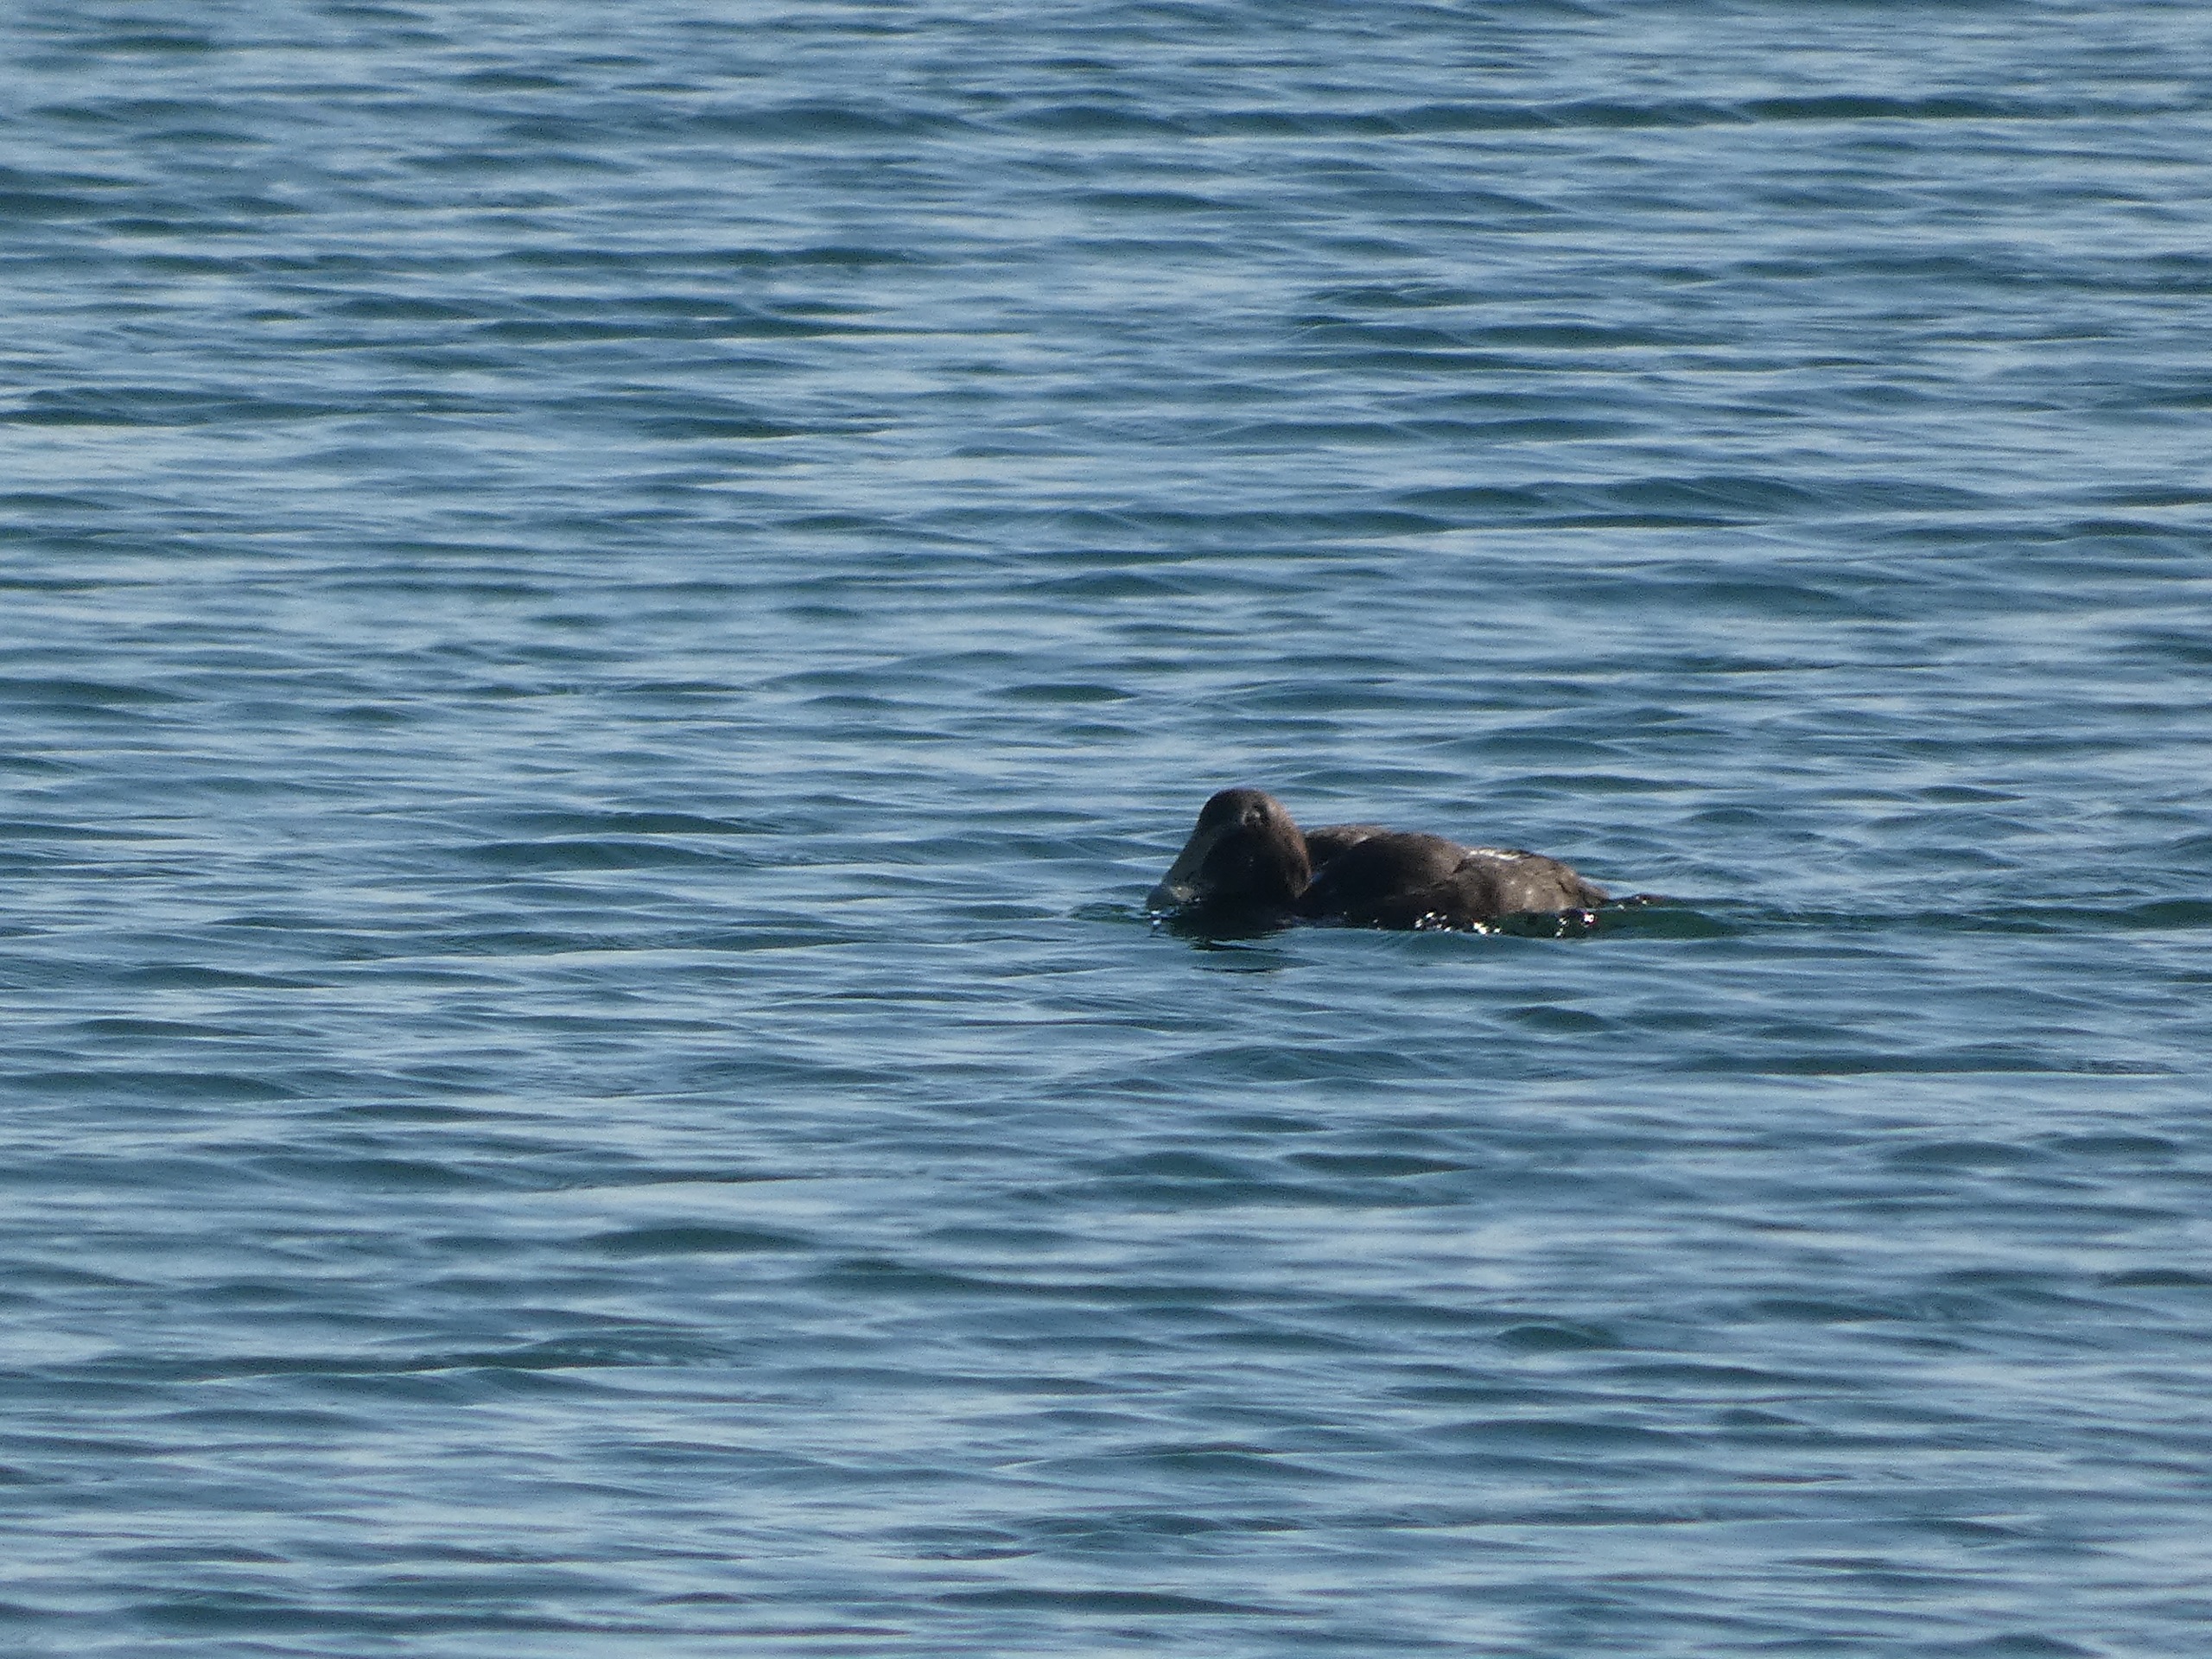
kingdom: Animalia
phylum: Chordata
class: Aves
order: Anseriformes
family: Anatidae
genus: Somateria
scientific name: Somateria mollissima
